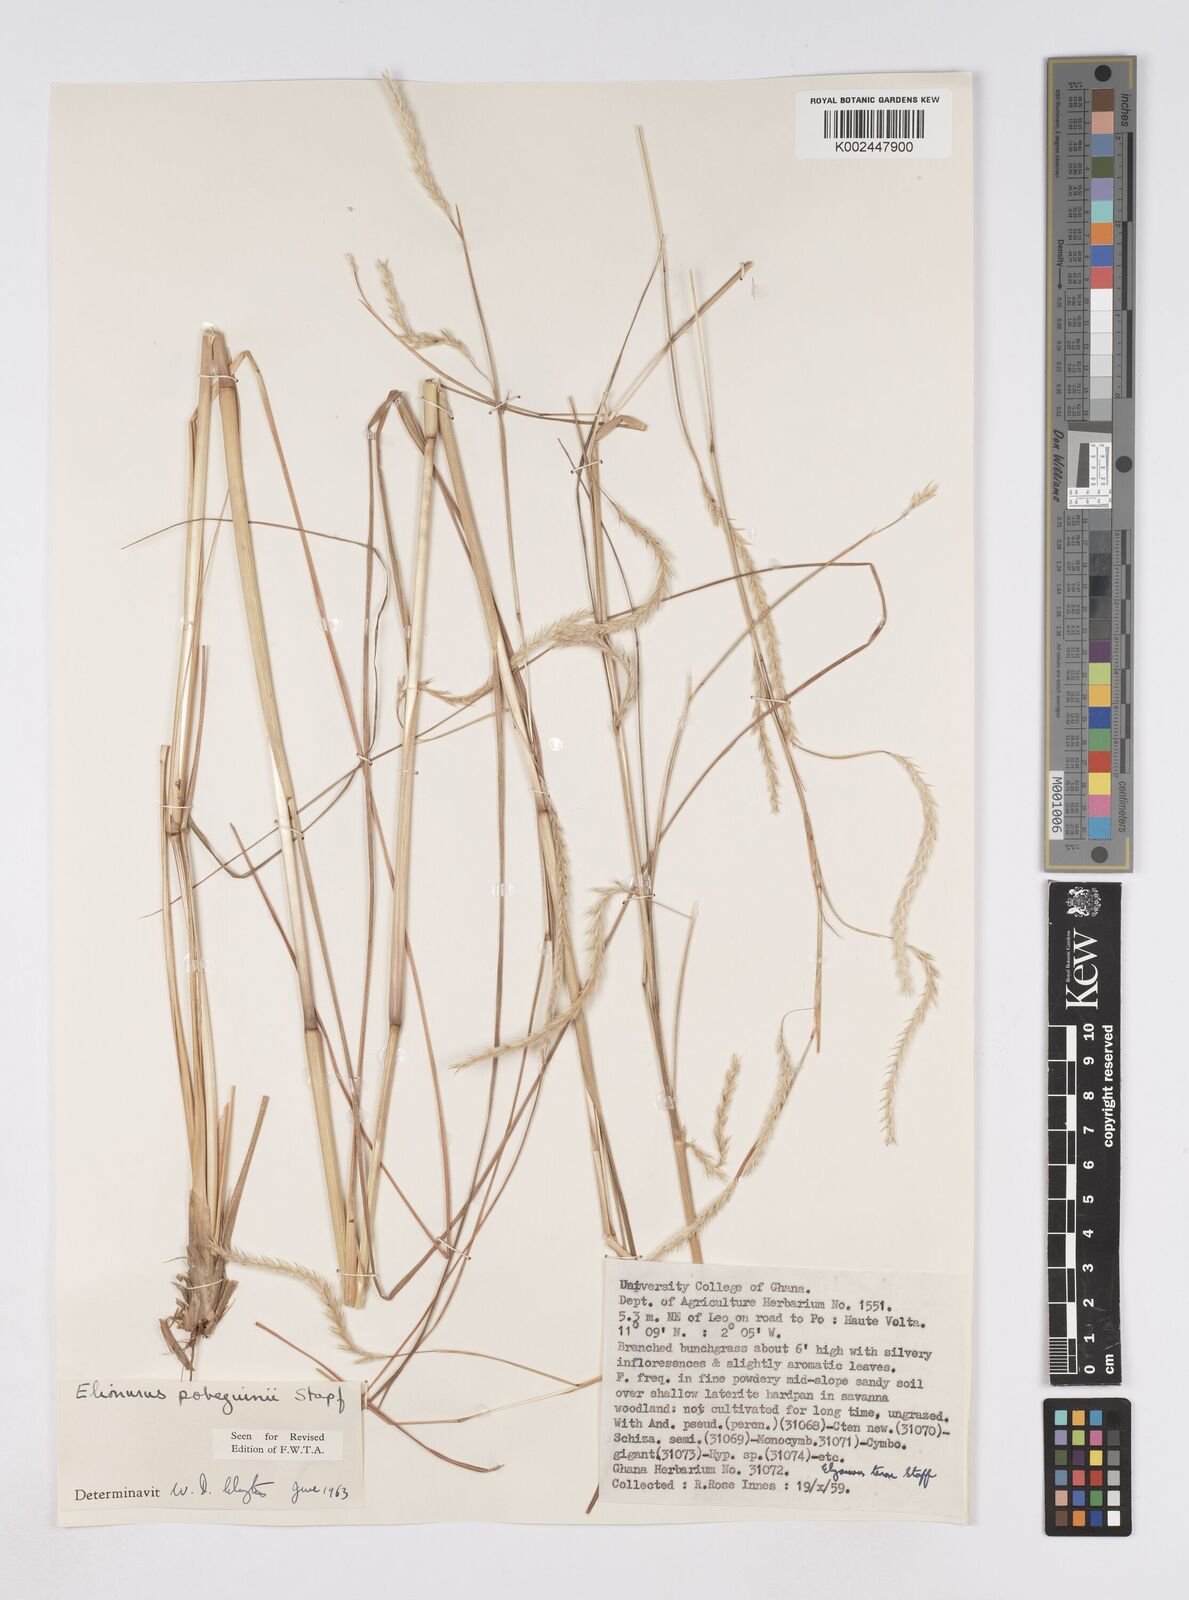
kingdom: Plantae
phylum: Tracheophyta
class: Liliopsida
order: Poales
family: Poaceae
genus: Elionurus
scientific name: Elionurus ciliaris
